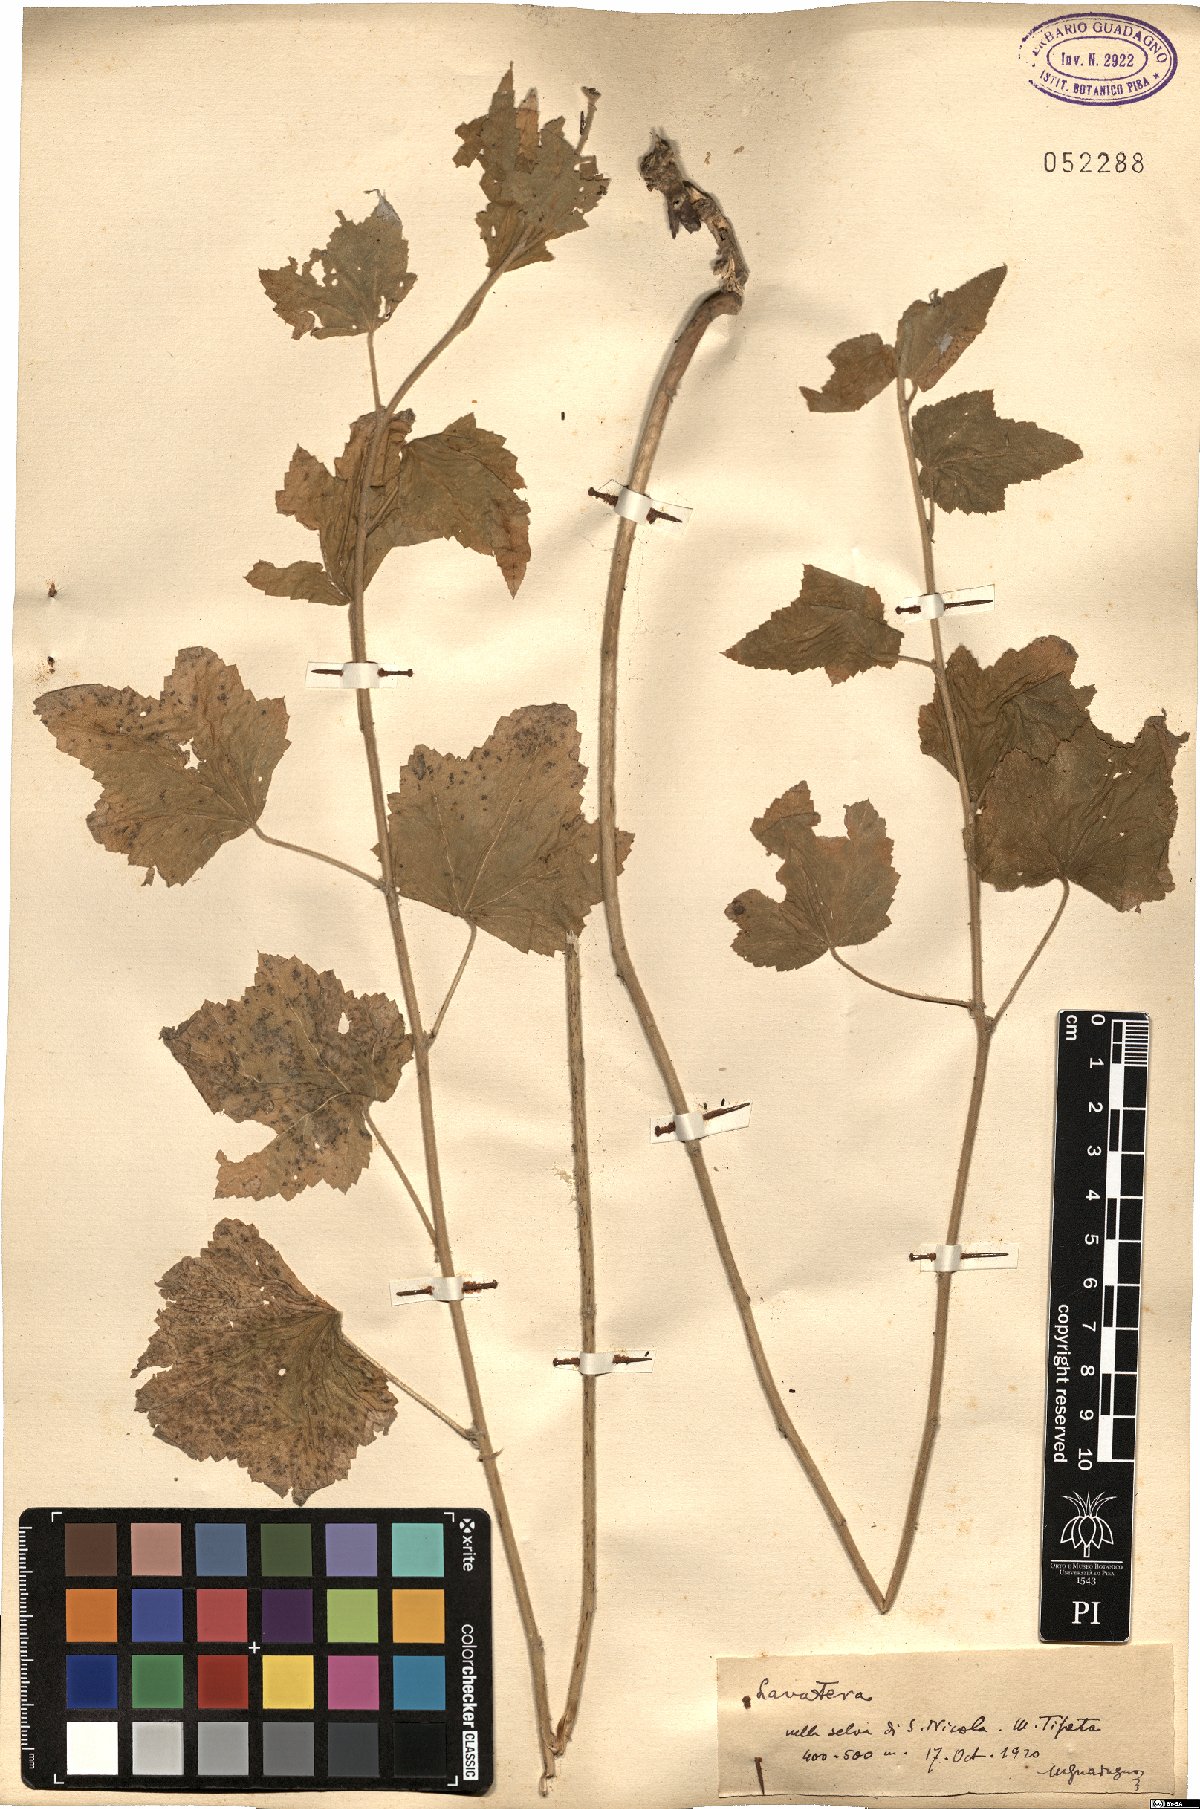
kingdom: Plantae
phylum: Tracheophyta
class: Magnoliopsida
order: Malvales
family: Malvaceae
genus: Malva
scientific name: Malva
